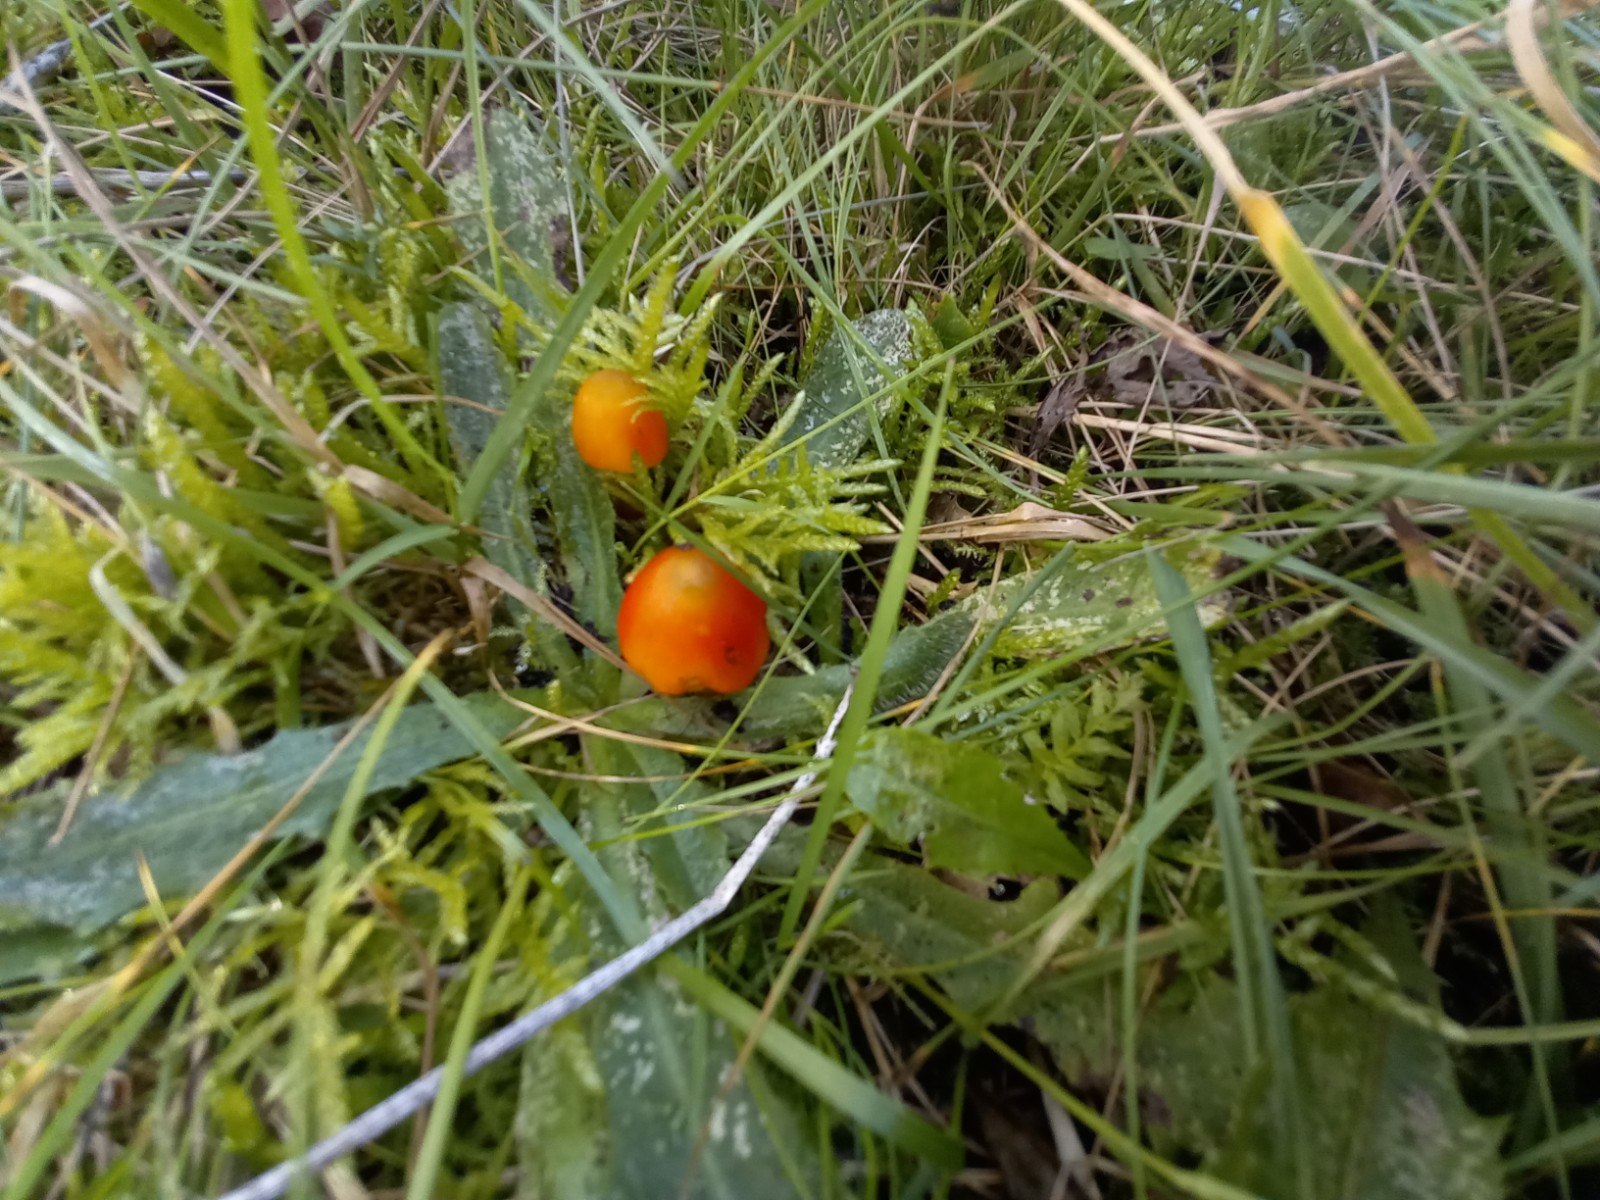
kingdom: Fungi
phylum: Basidiomycota
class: Agaricomycetes
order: Agaricales
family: Hygrophoraceae
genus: Hygrocybe
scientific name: Hygrocybe conica
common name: kegle-vokshat
